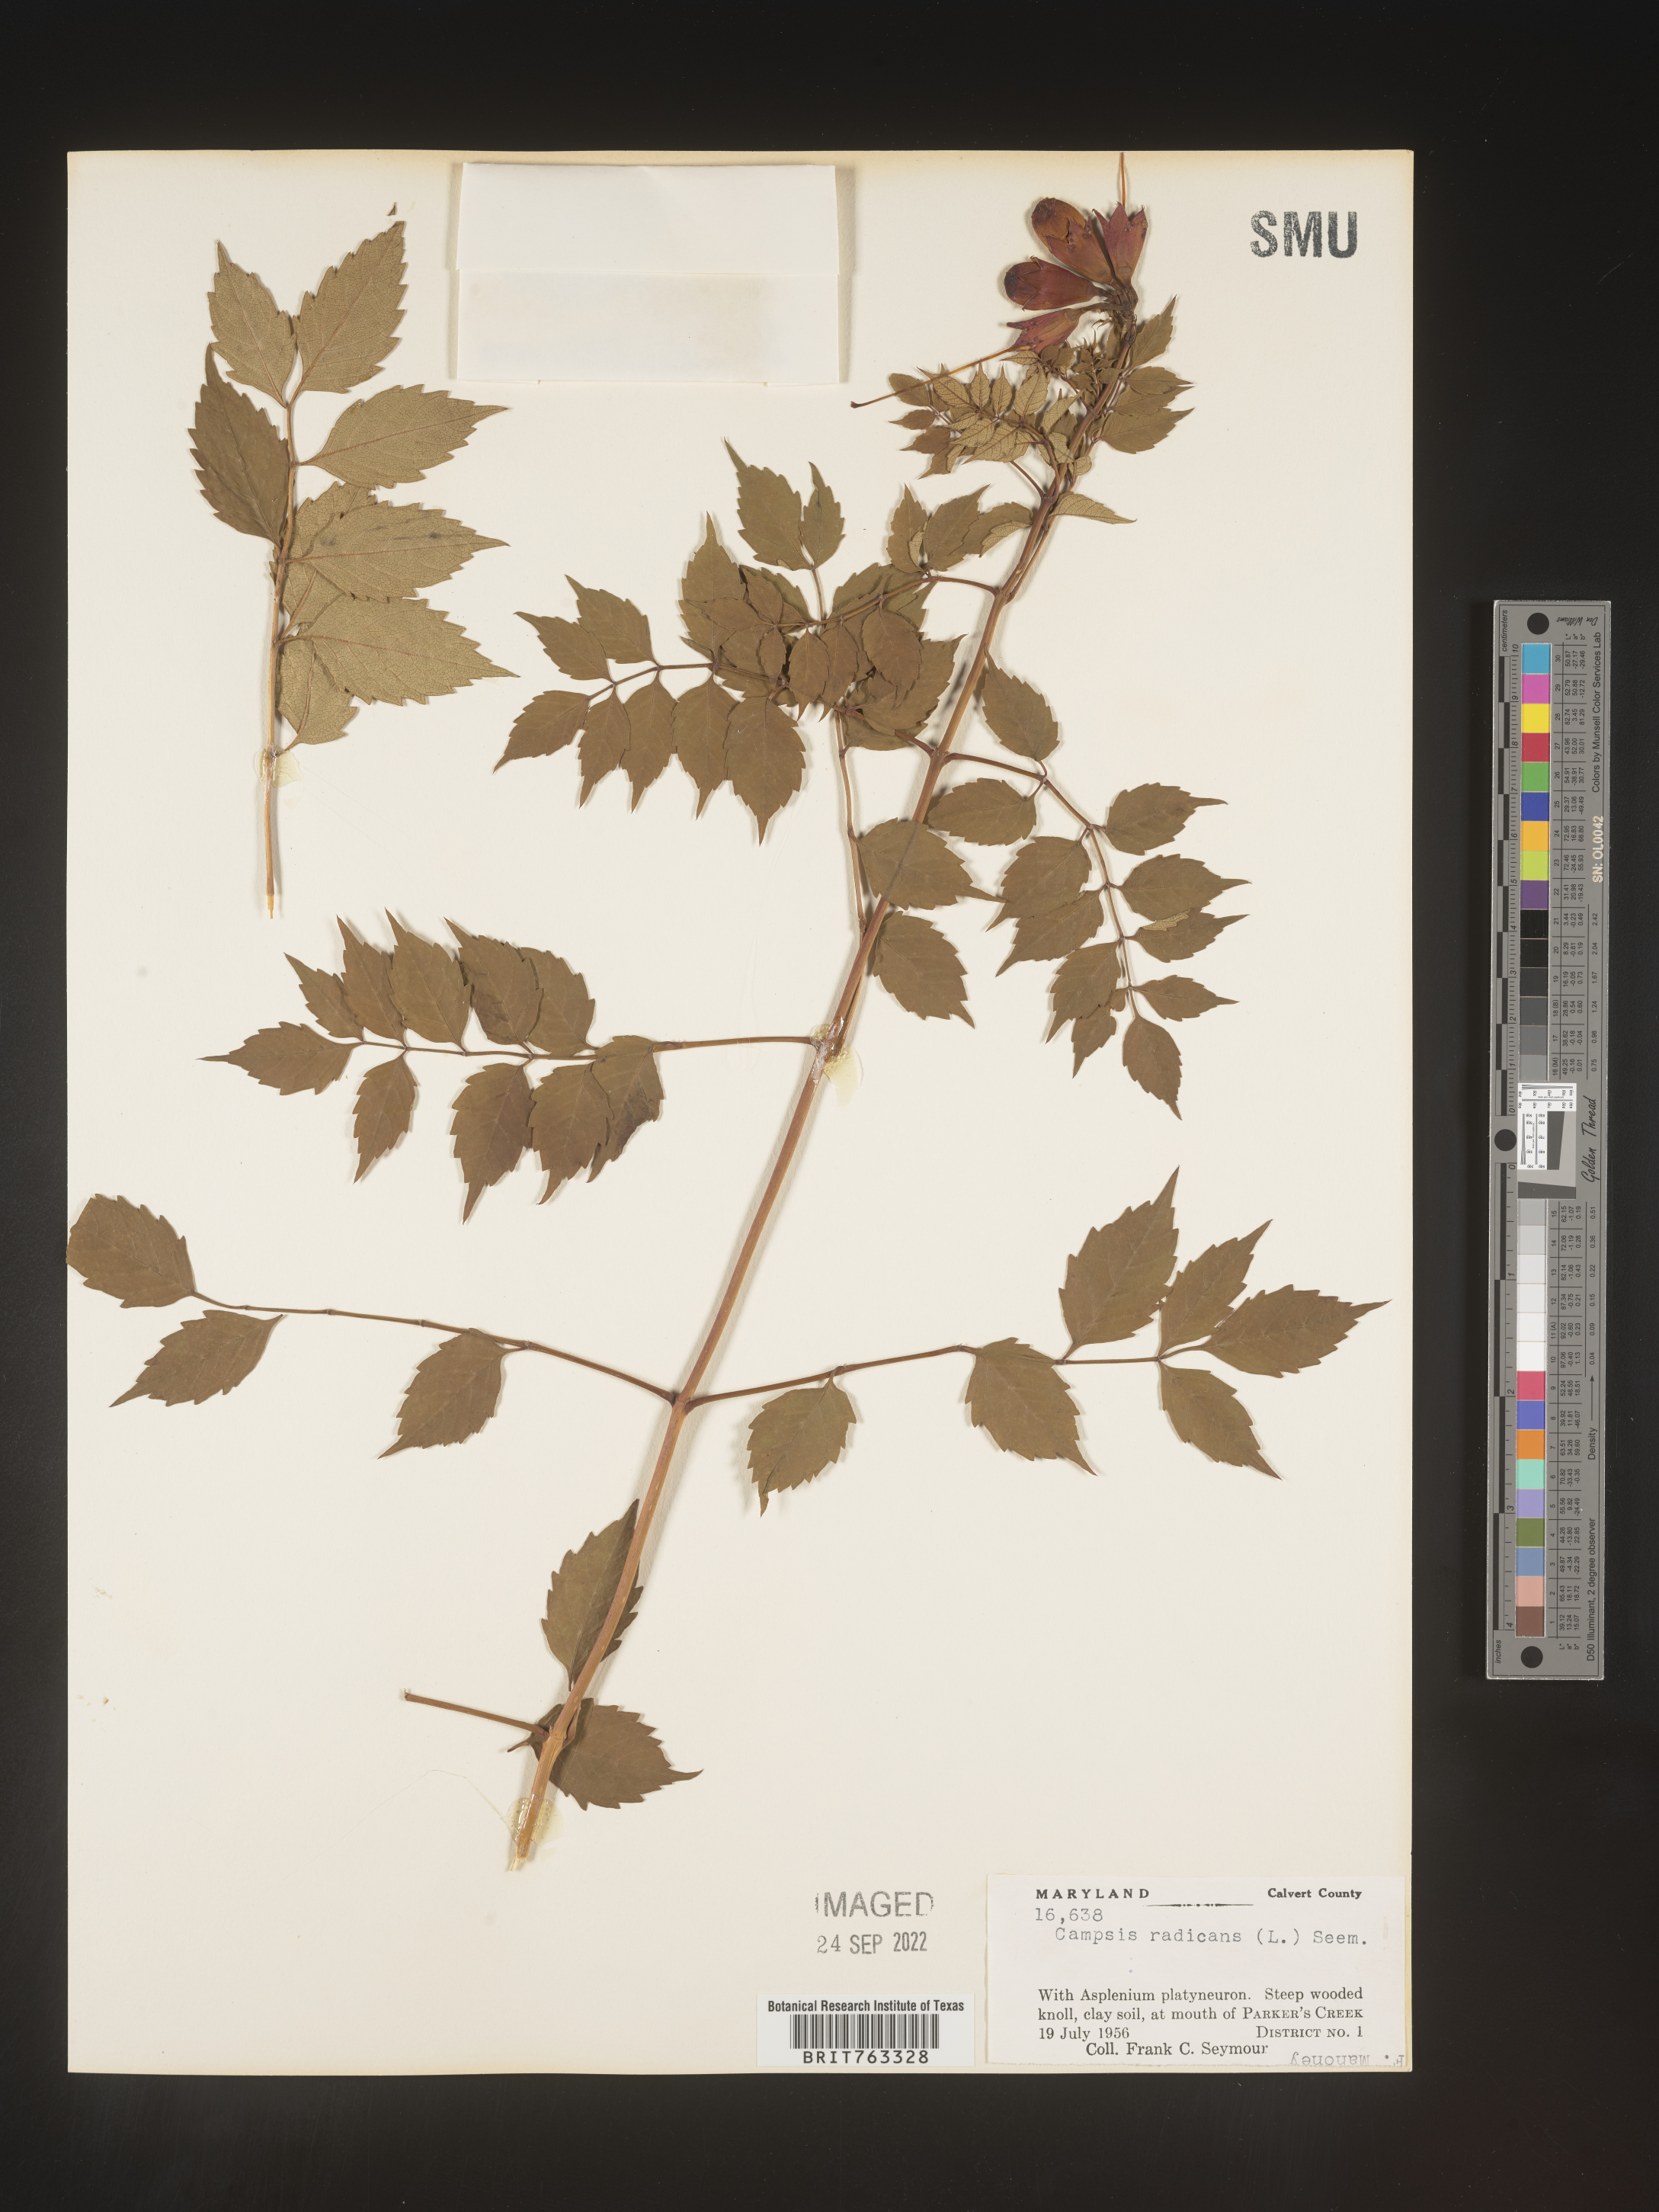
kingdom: Plantae
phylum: Tracheophyta
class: Magnoliopsida
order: Lamiales
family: Bignoniaceae
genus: Campsis
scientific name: Campsis radicans
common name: Trumpet-creeper
